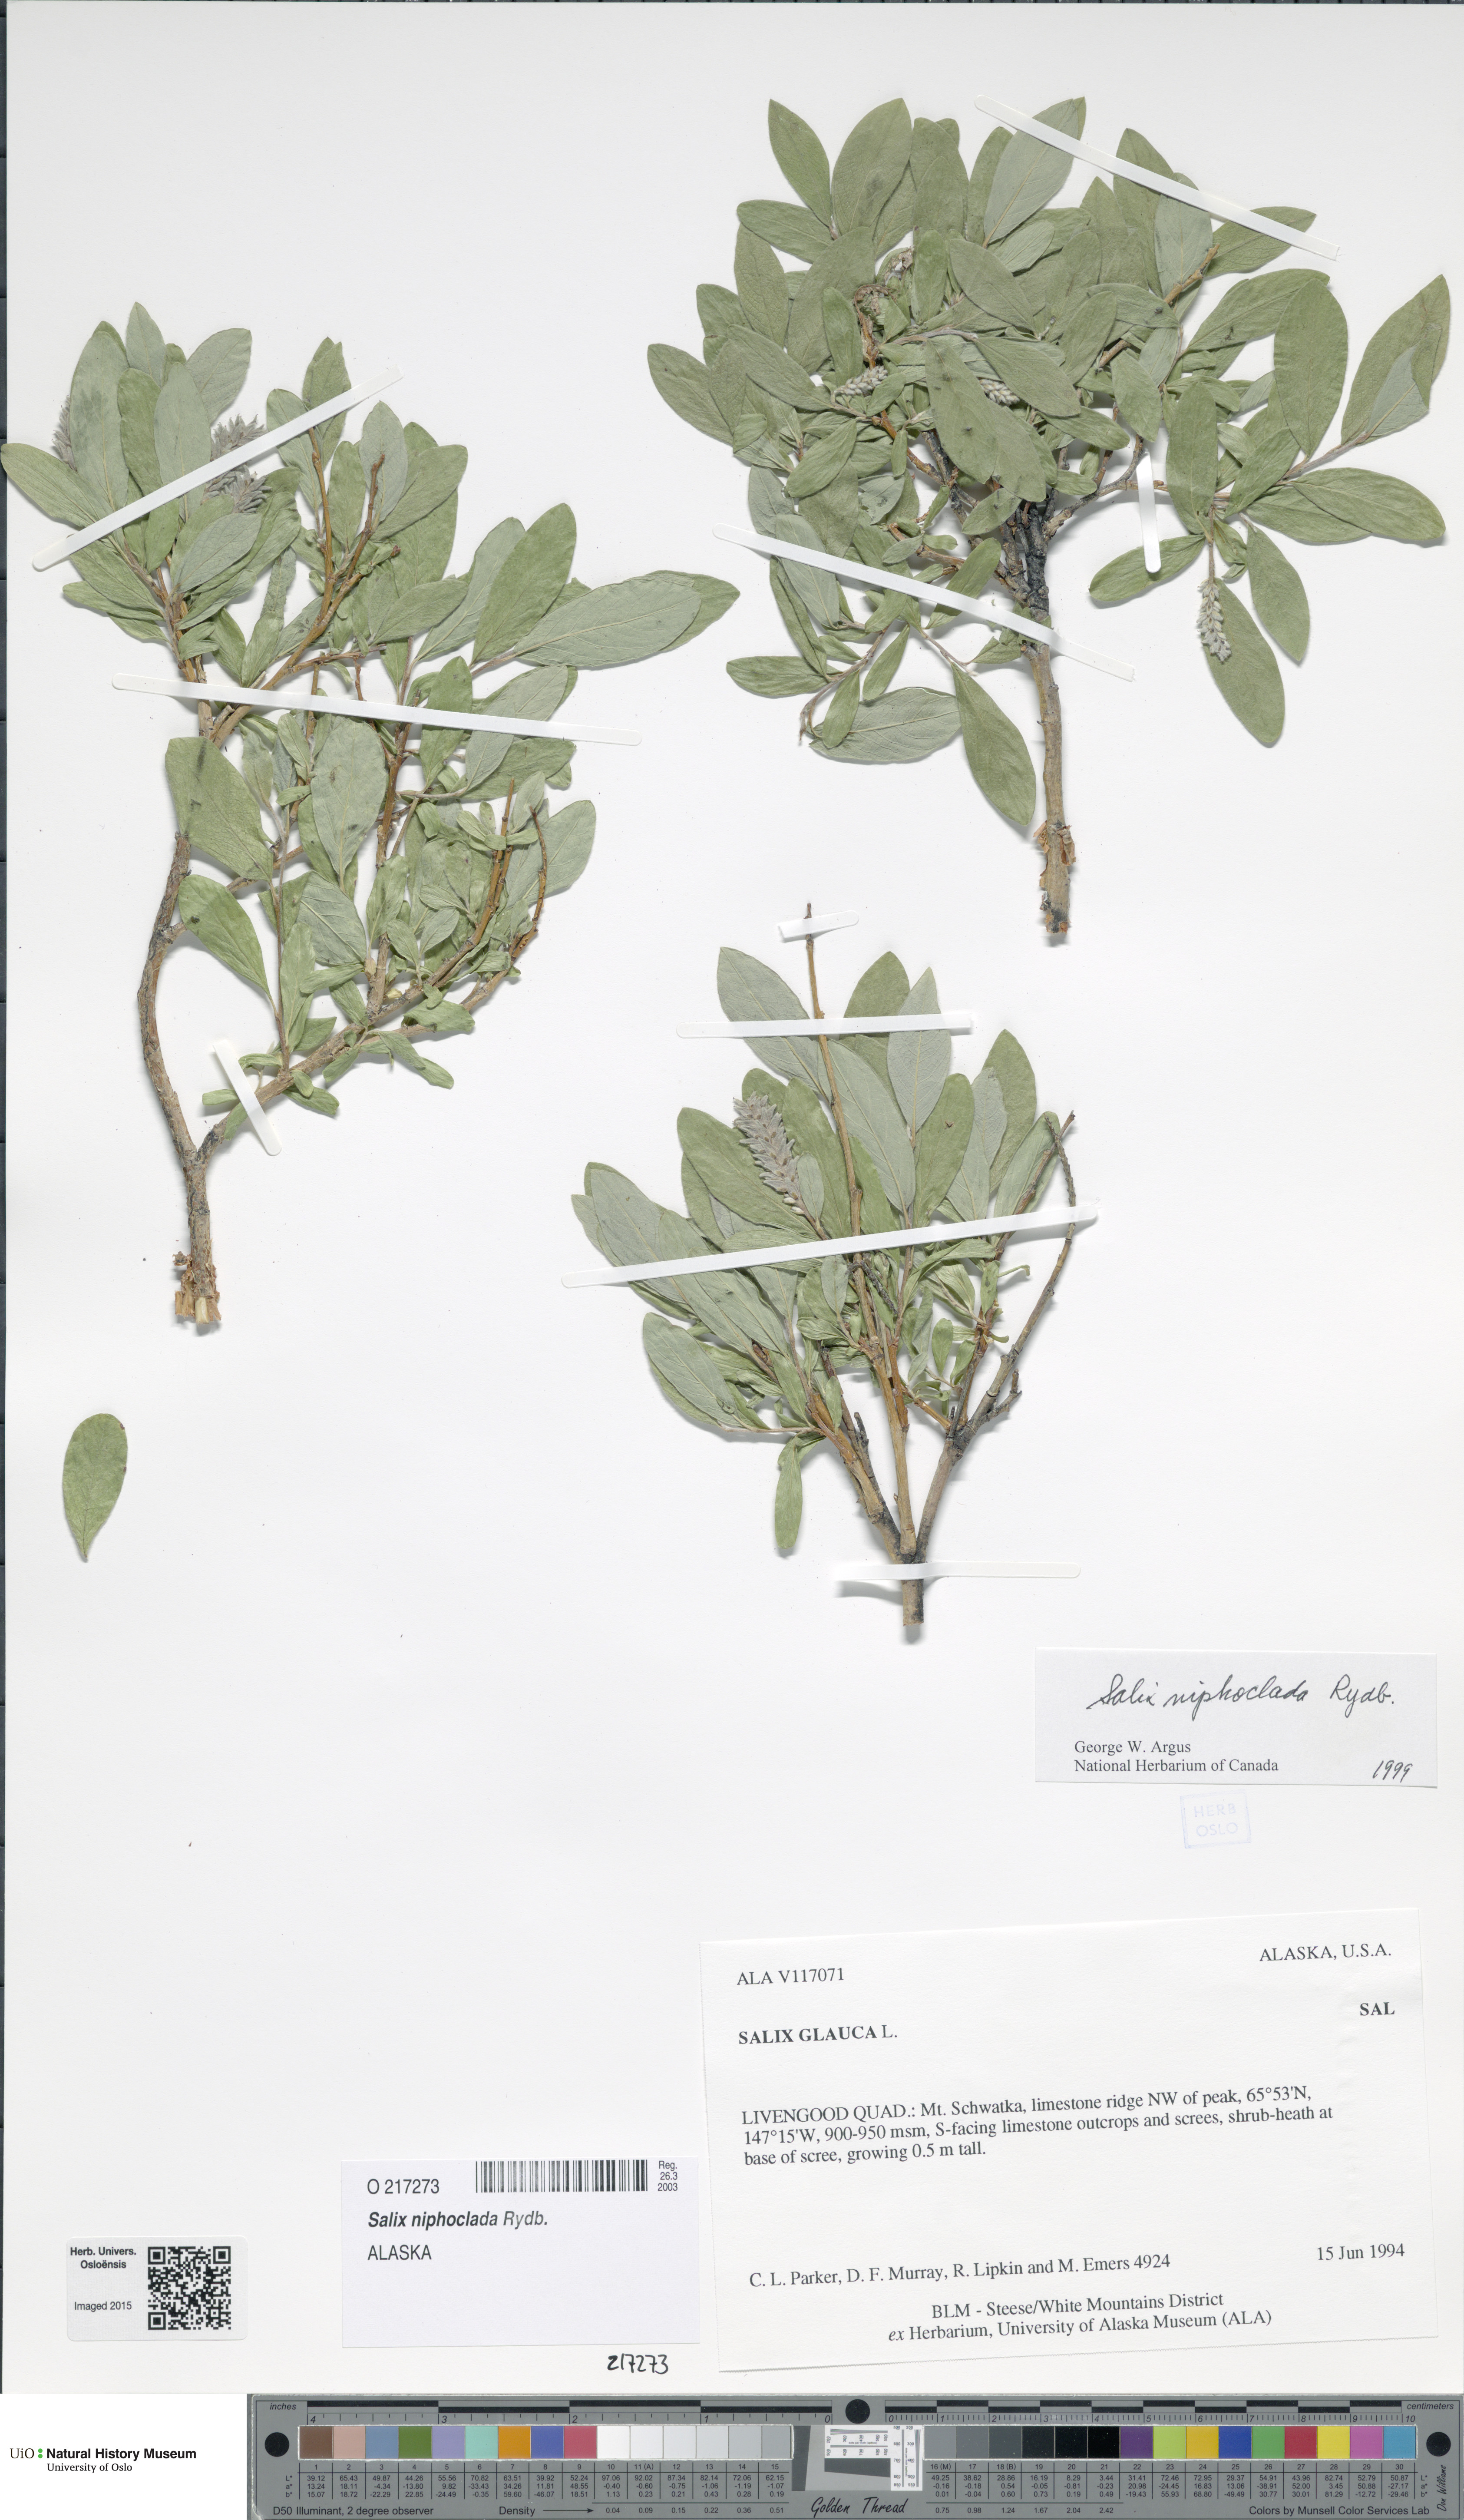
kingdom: Plantae
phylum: Tracheophyta
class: Magnoliopsida
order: Malpighiales
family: Salicaceae
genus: Salix
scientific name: Salix niphoclada
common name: Barren-ground willow
